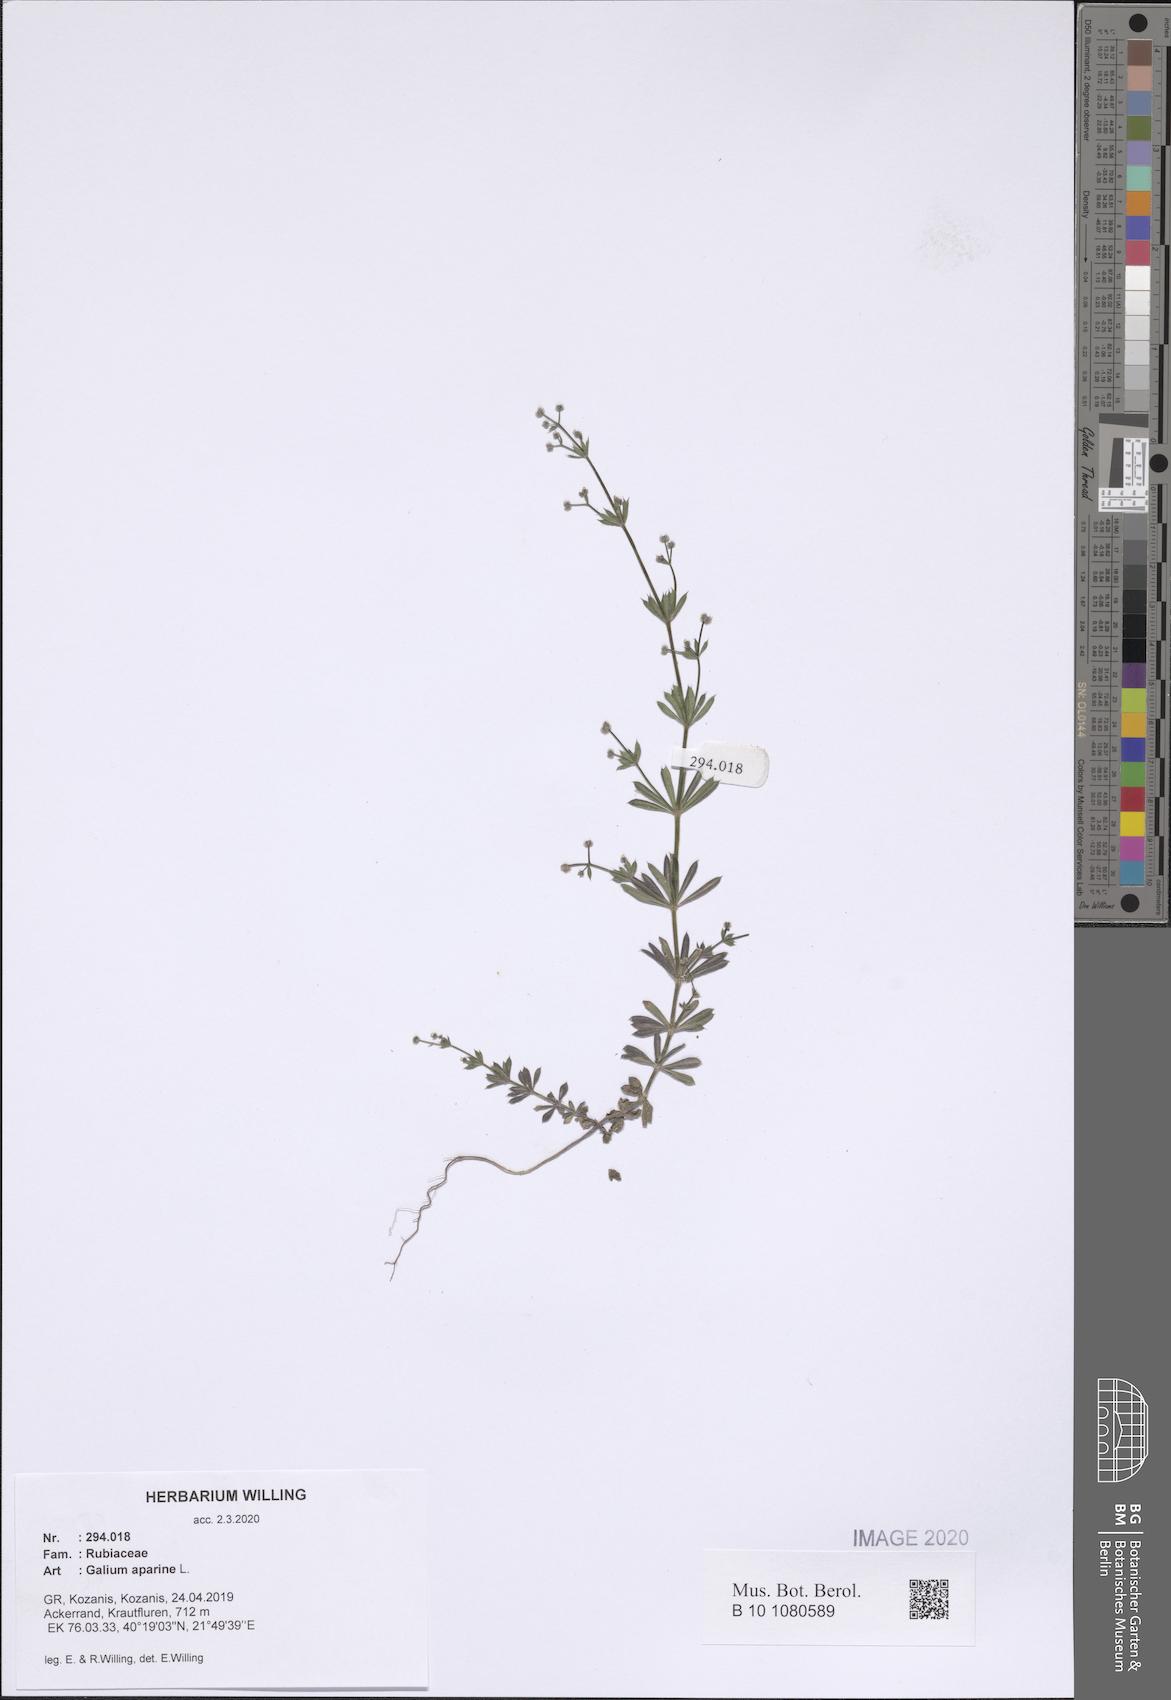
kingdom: Plantae
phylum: Tracheophyta
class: Magnoliopsida
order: Gentianales
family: Rubiaceae
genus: Galium
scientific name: Galium aparine
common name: Cleavers
